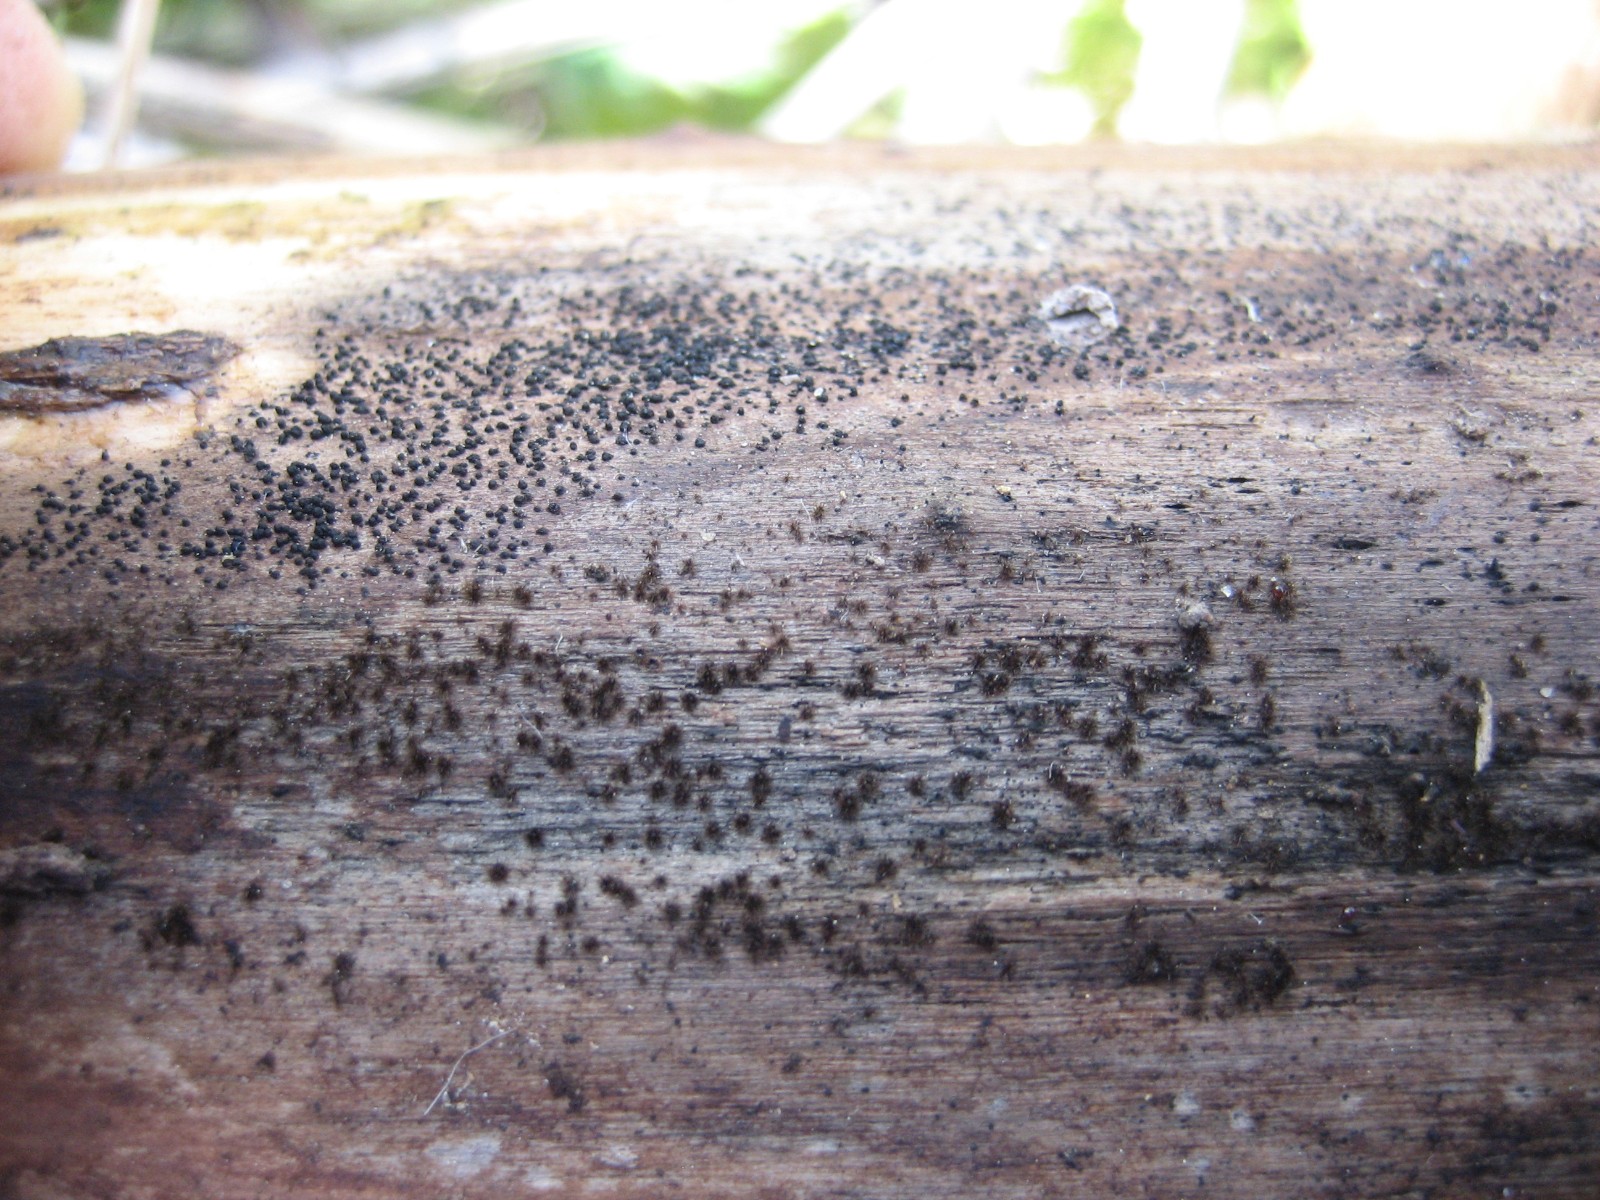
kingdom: Fungi
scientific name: Fungi
